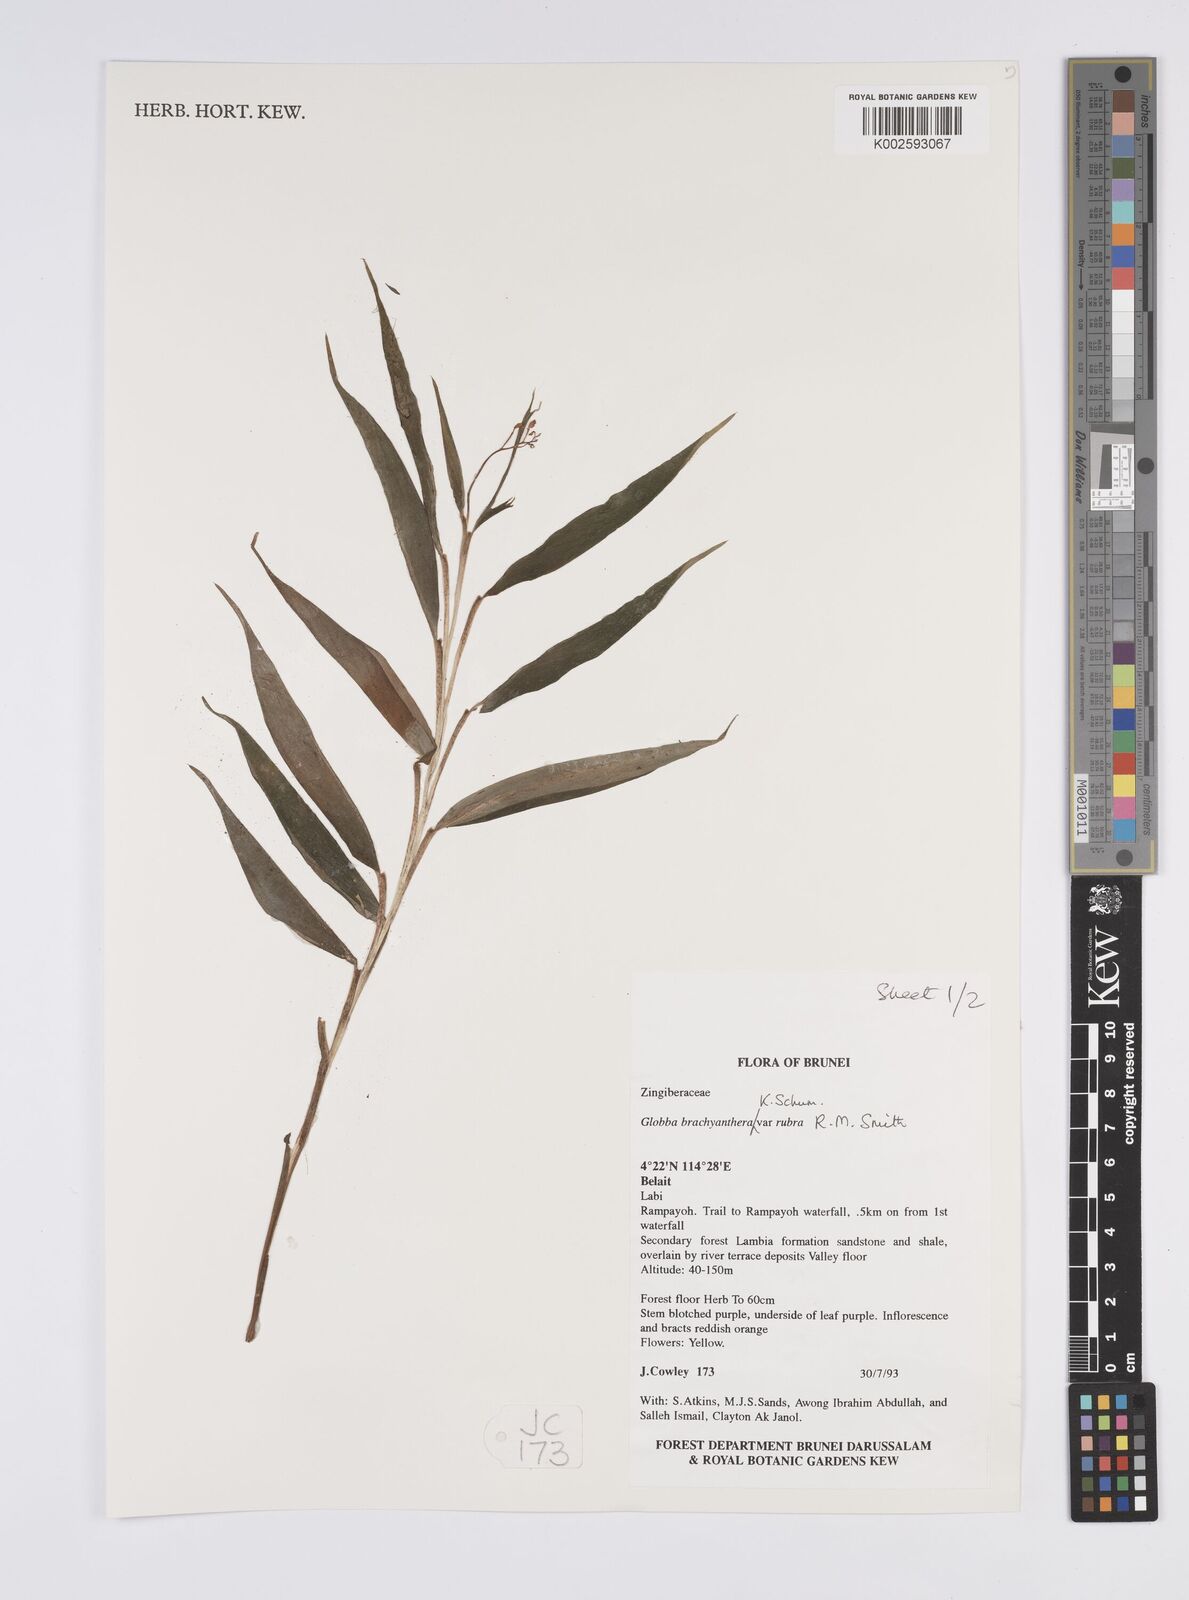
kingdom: Plantae
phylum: Tracheophyta
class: Liliopsida
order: Zingiberales
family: Zingiberaceae
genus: Globba
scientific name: Globba brachyanthera
